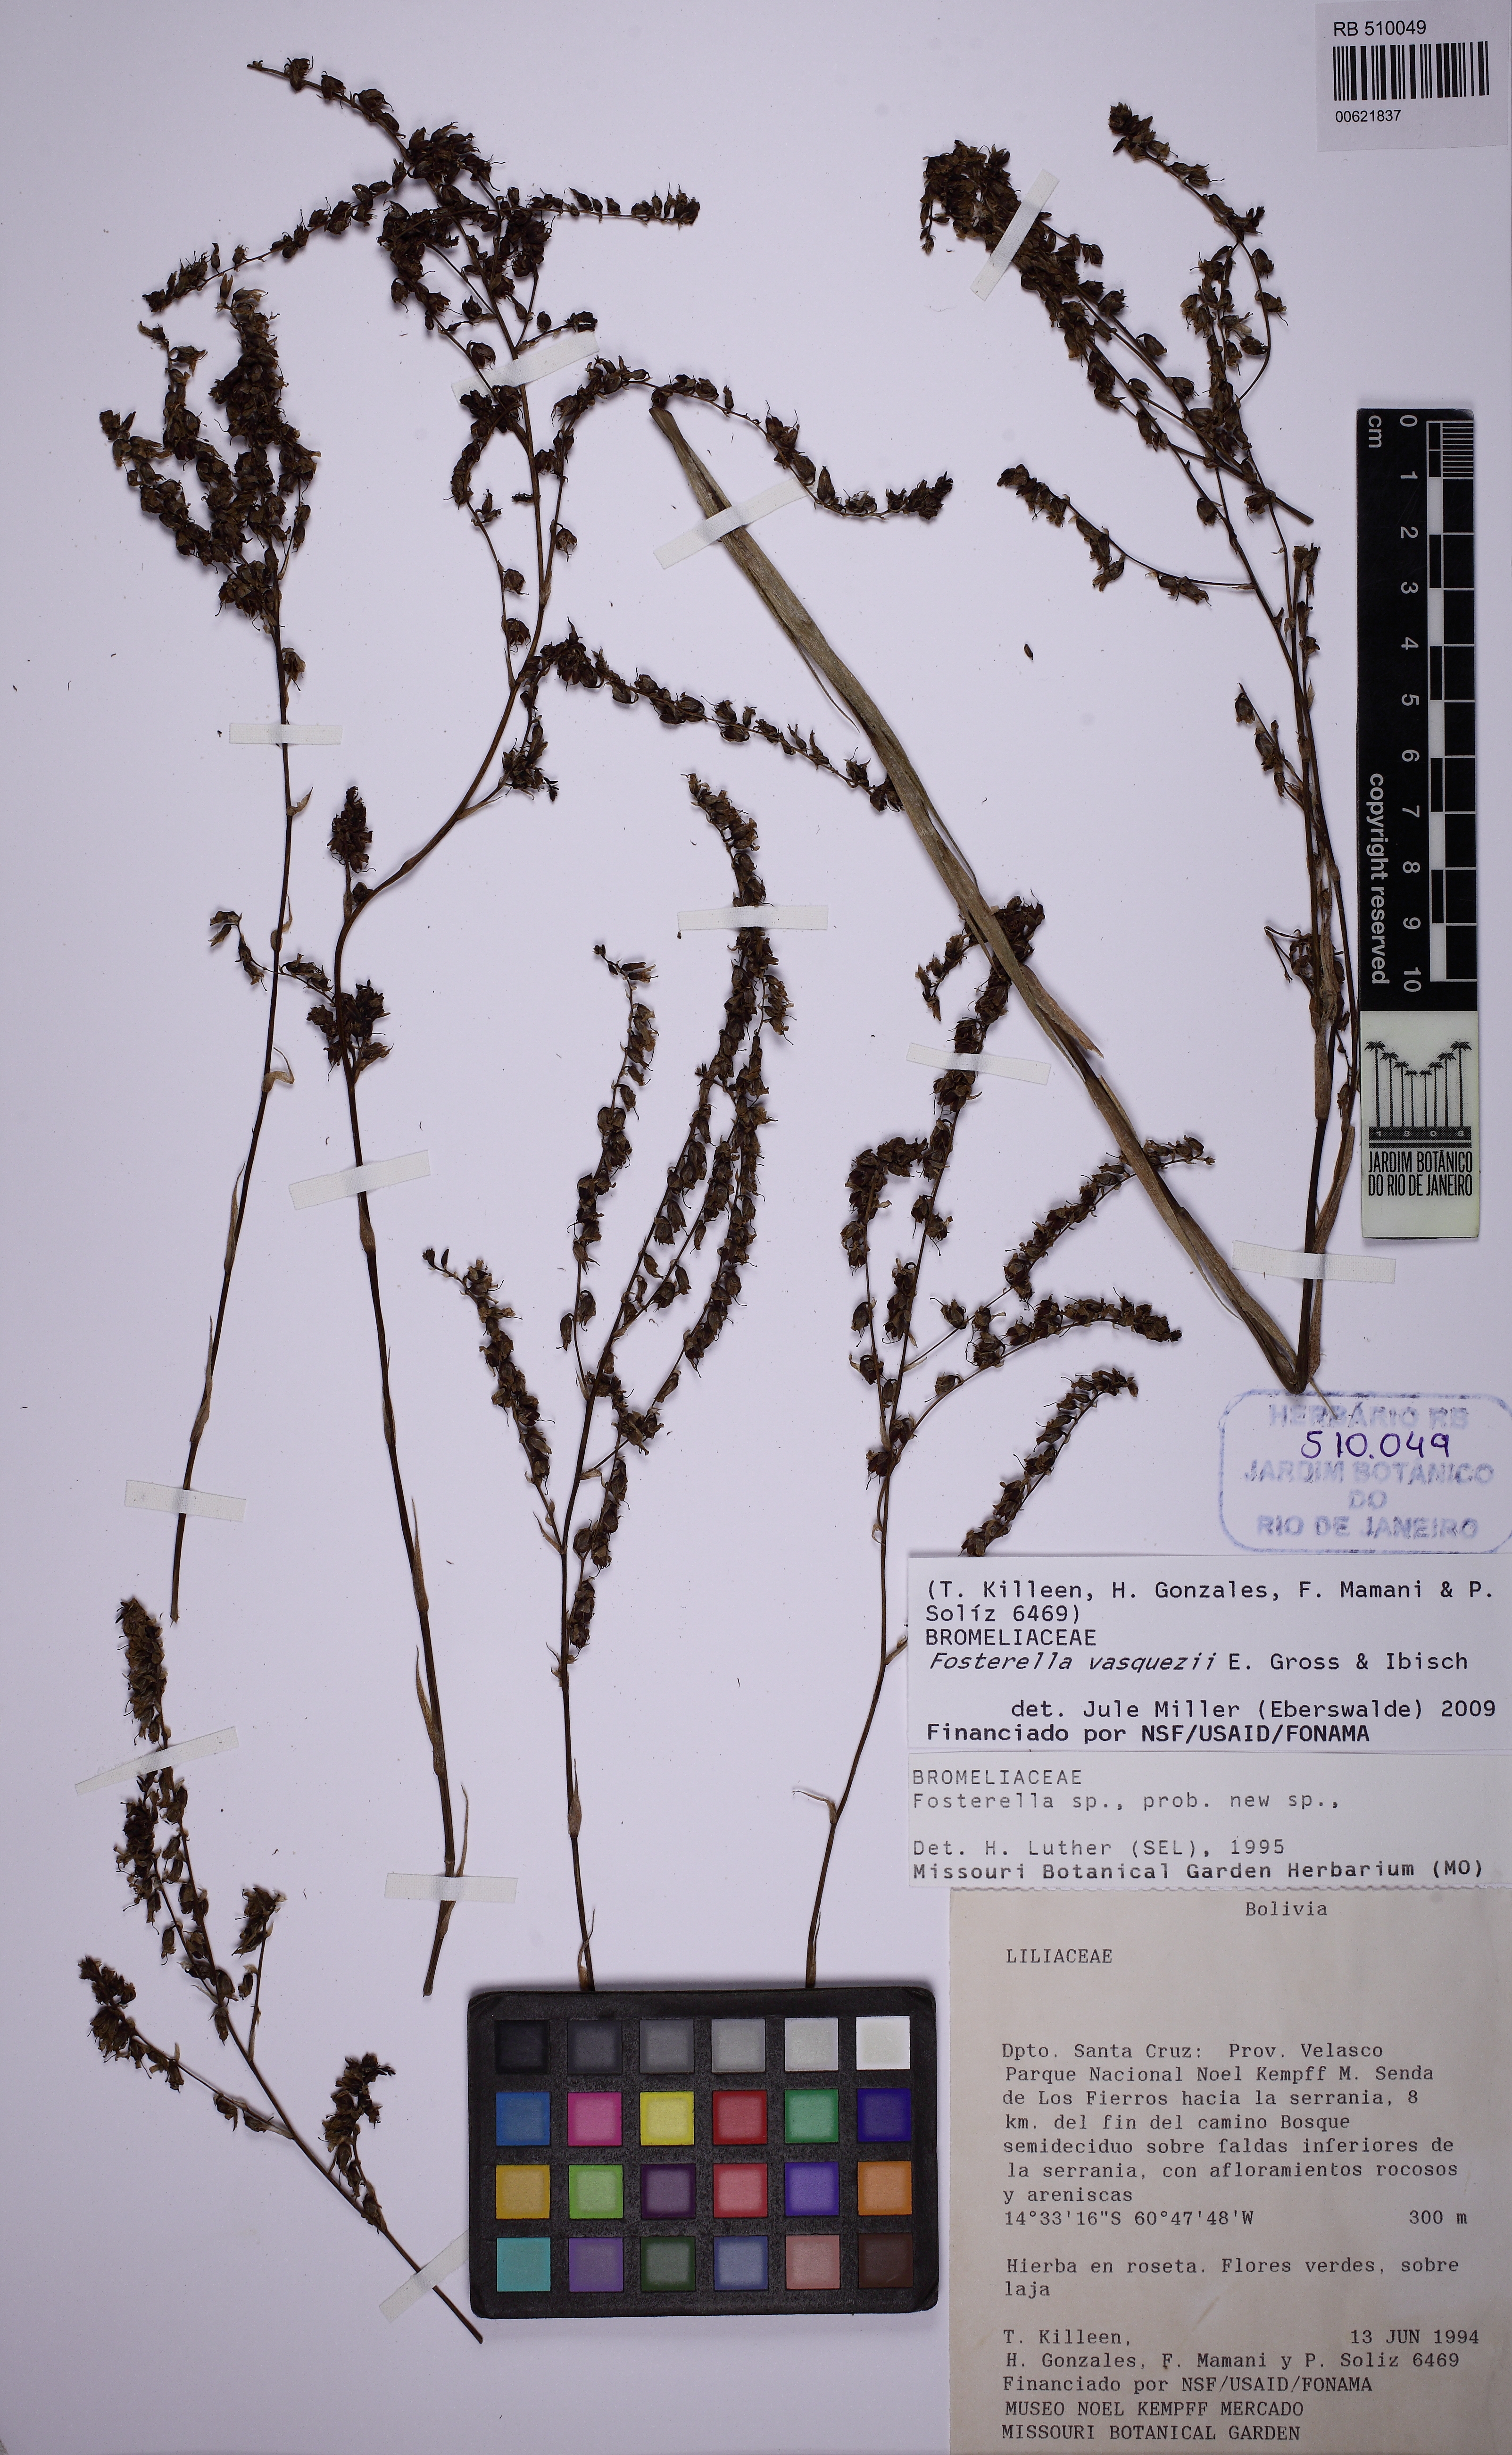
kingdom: Plantae
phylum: Tracheophyta
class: Liliopsida
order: Poales
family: Bromeliaceae
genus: Fosterella
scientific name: Fosterella vasquezii
